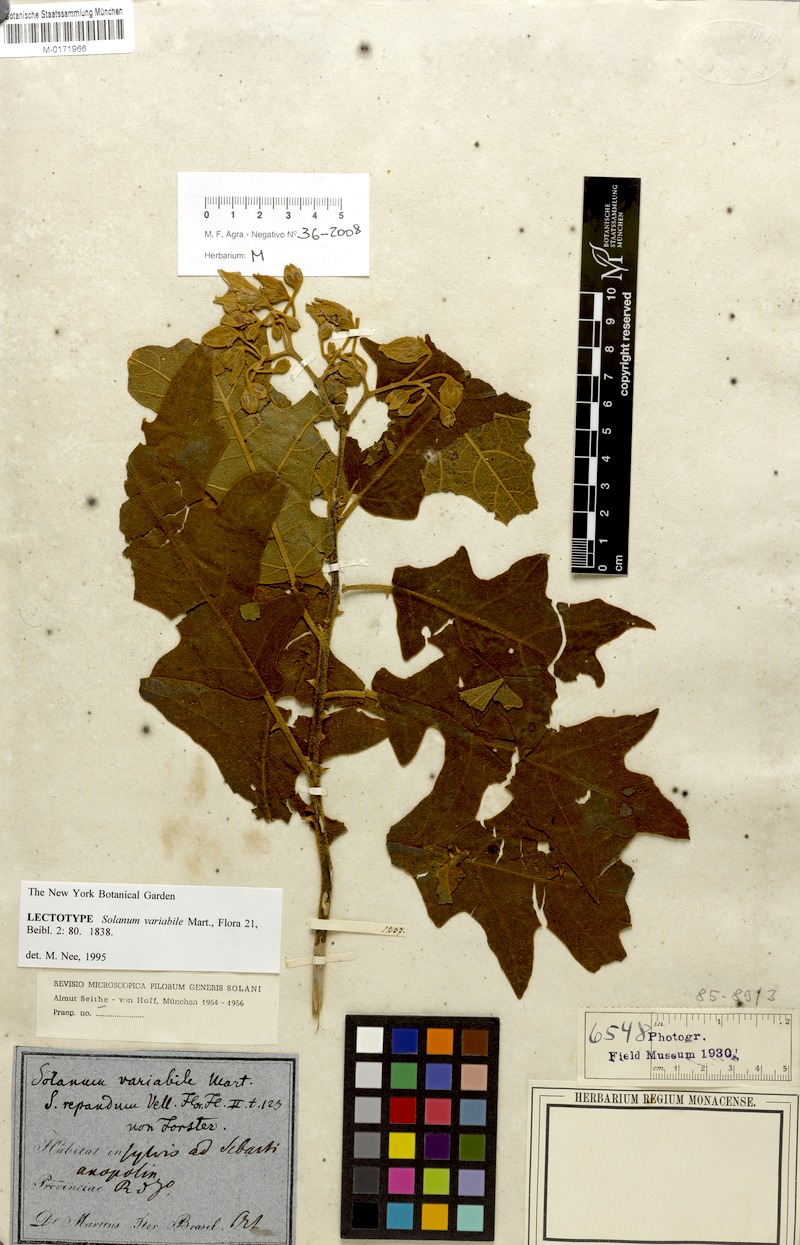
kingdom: Plantae
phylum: Tracheophyta
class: Magnoliopsida
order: Solanales
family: Solanaceae
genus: Solanum
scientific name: Solanum variabile
